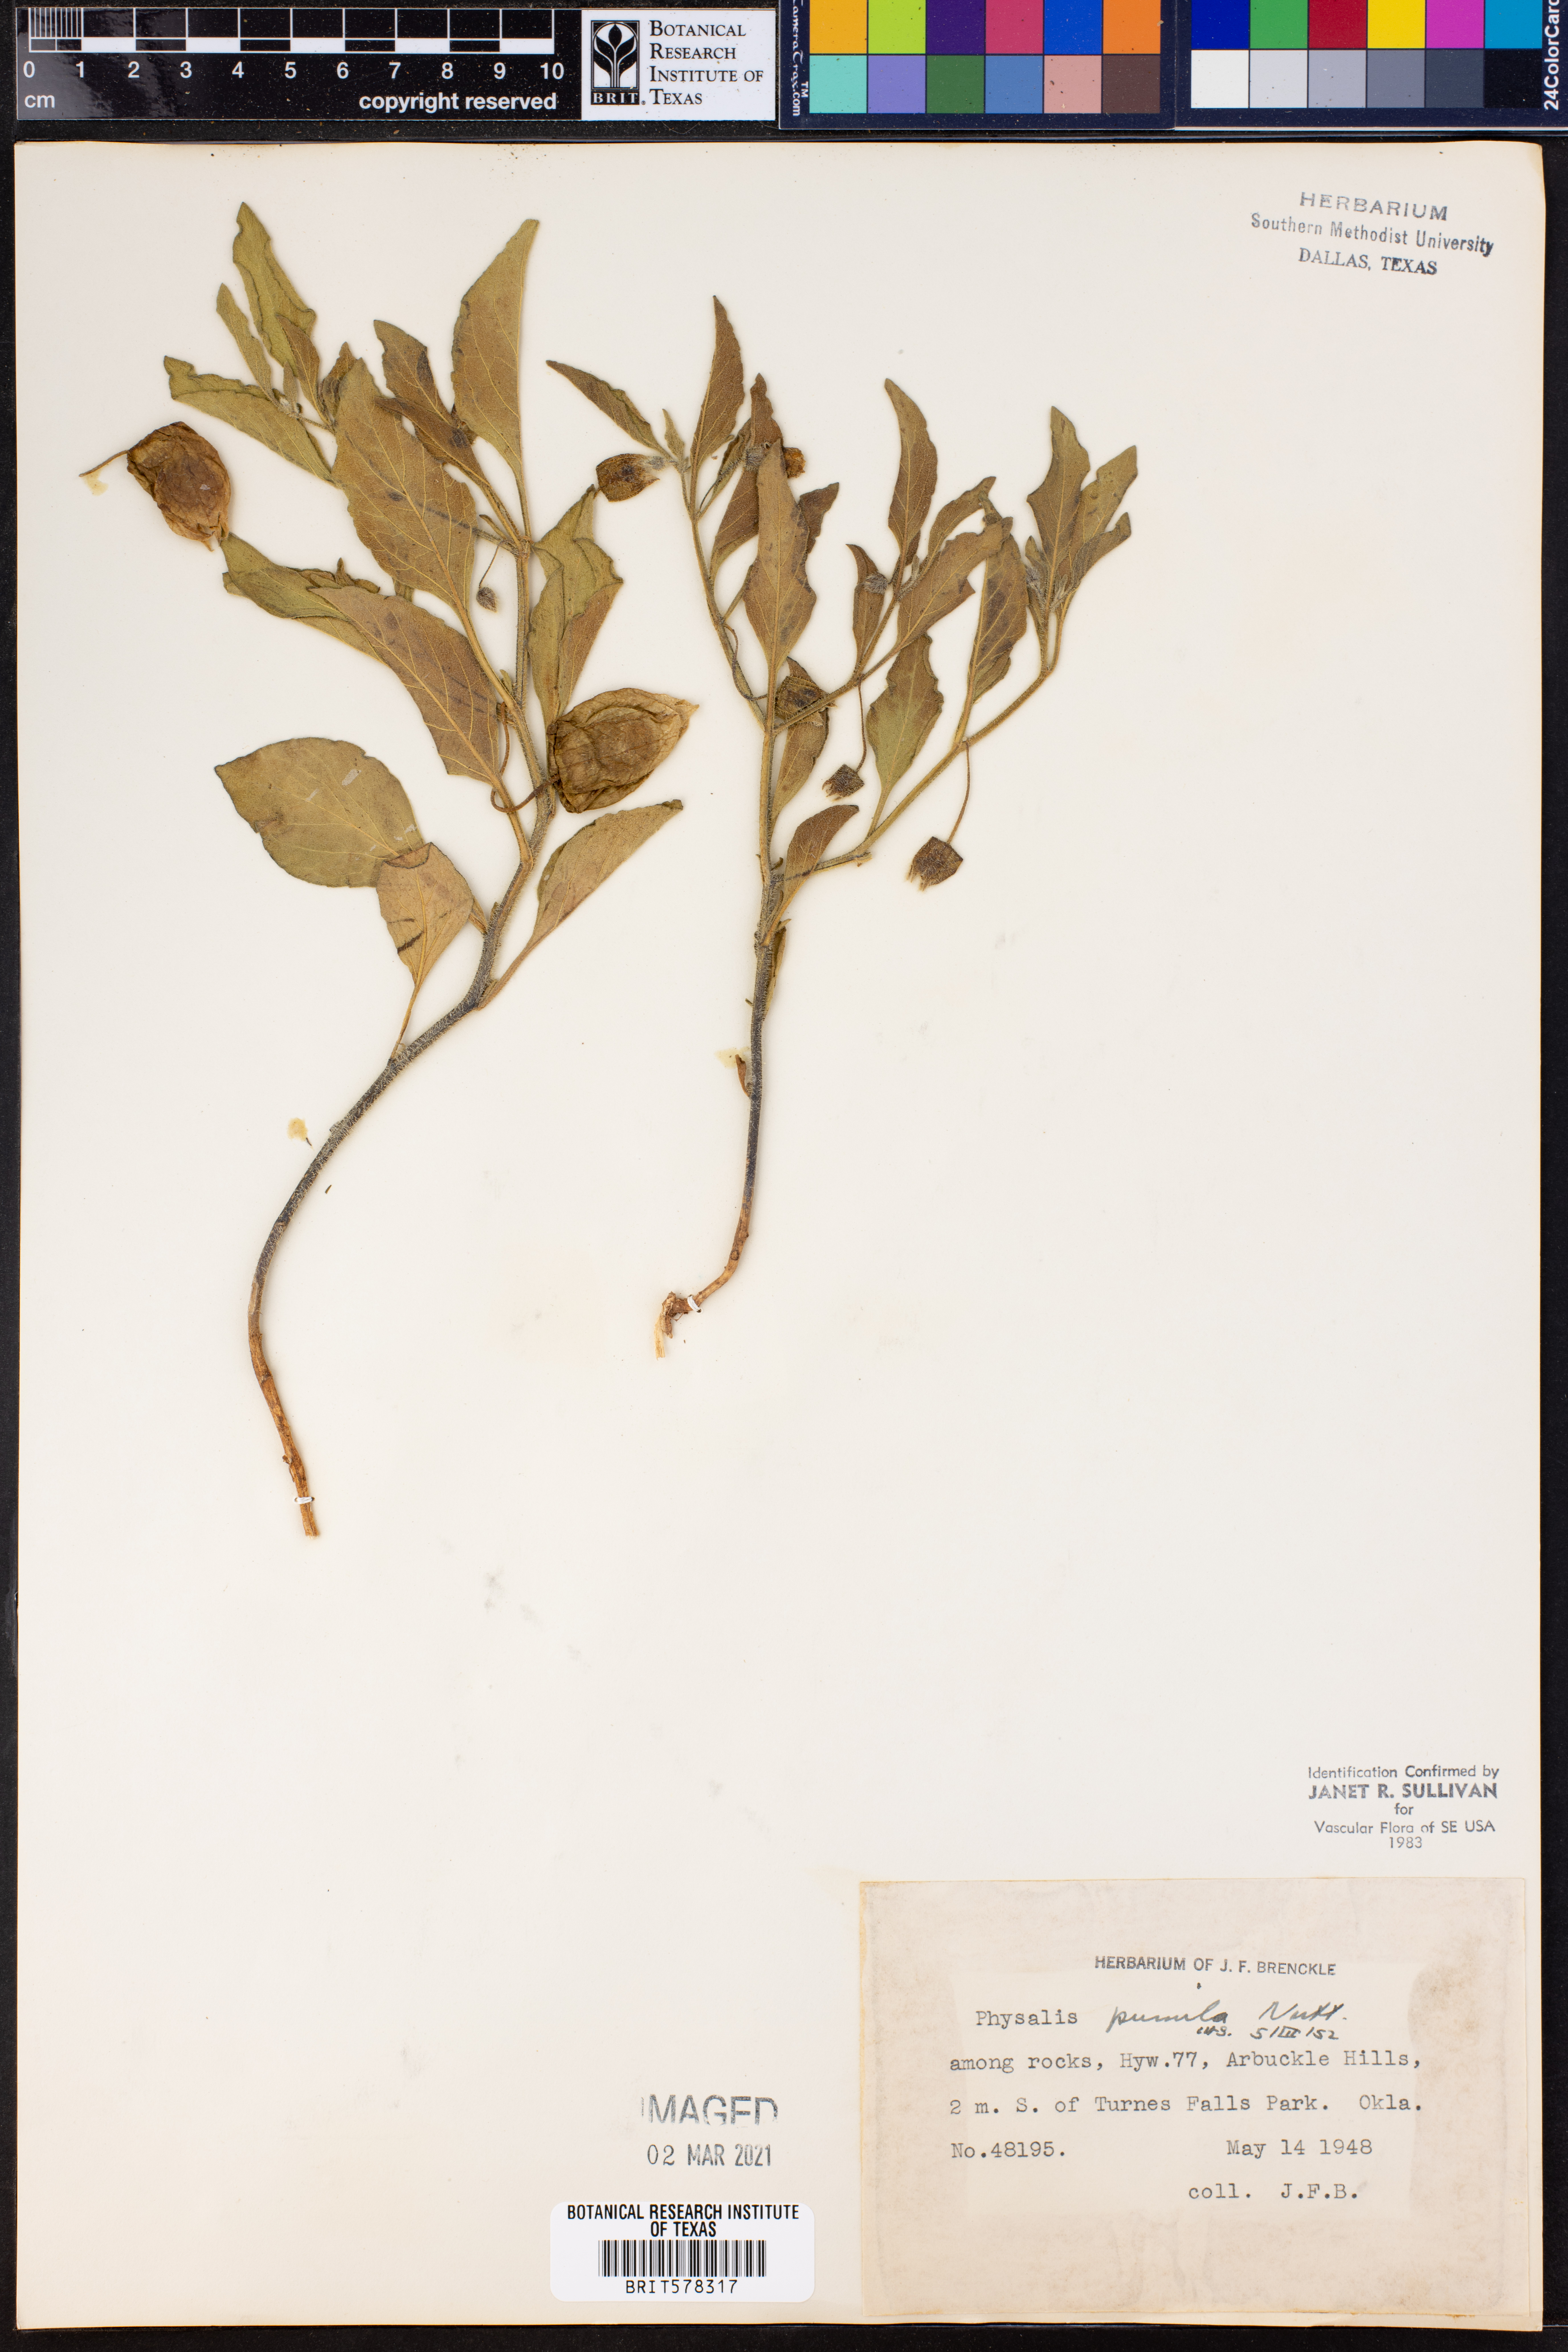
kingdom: Plantae
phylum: Tracheophyta
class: Magnoliopsida
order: Solanales
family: Solanaceae
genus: Physalis
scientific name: Physalis pumila
